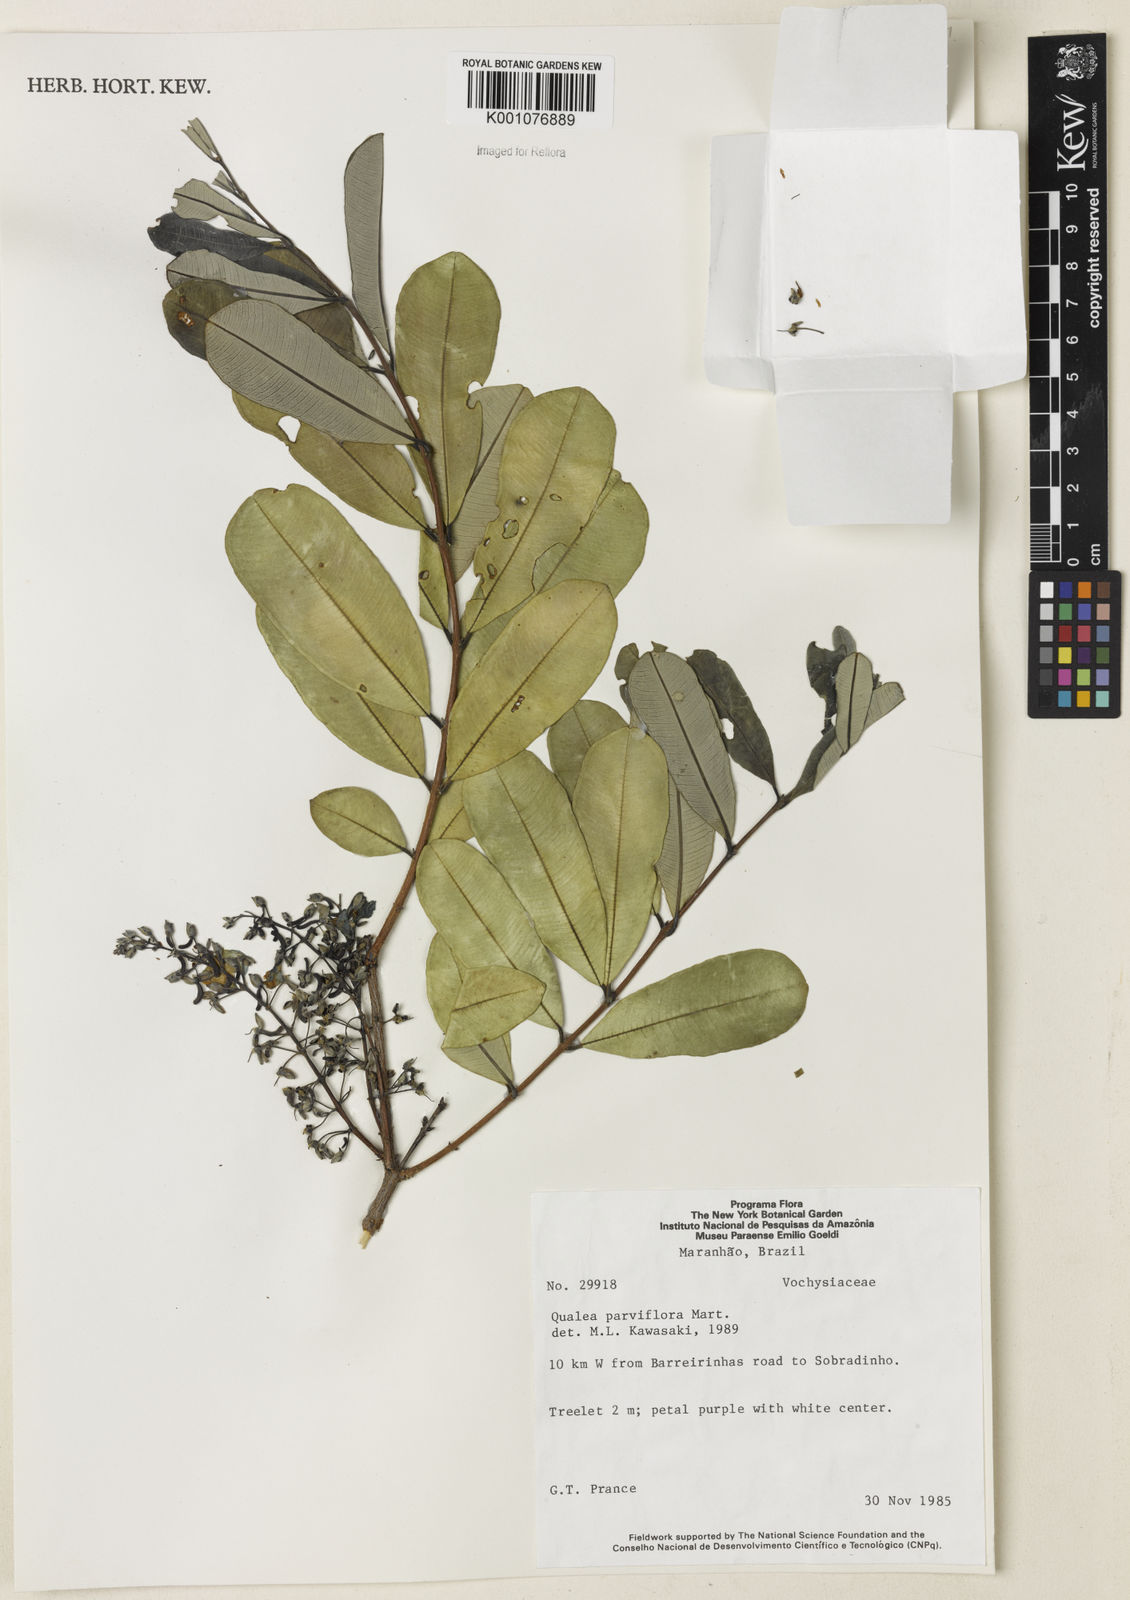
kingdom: Plantae
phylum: Tracheophyta
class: Magnoliopsida
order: Myrtales
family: Vochysiaceae
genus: Qualea
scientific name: Qualea parviflora
